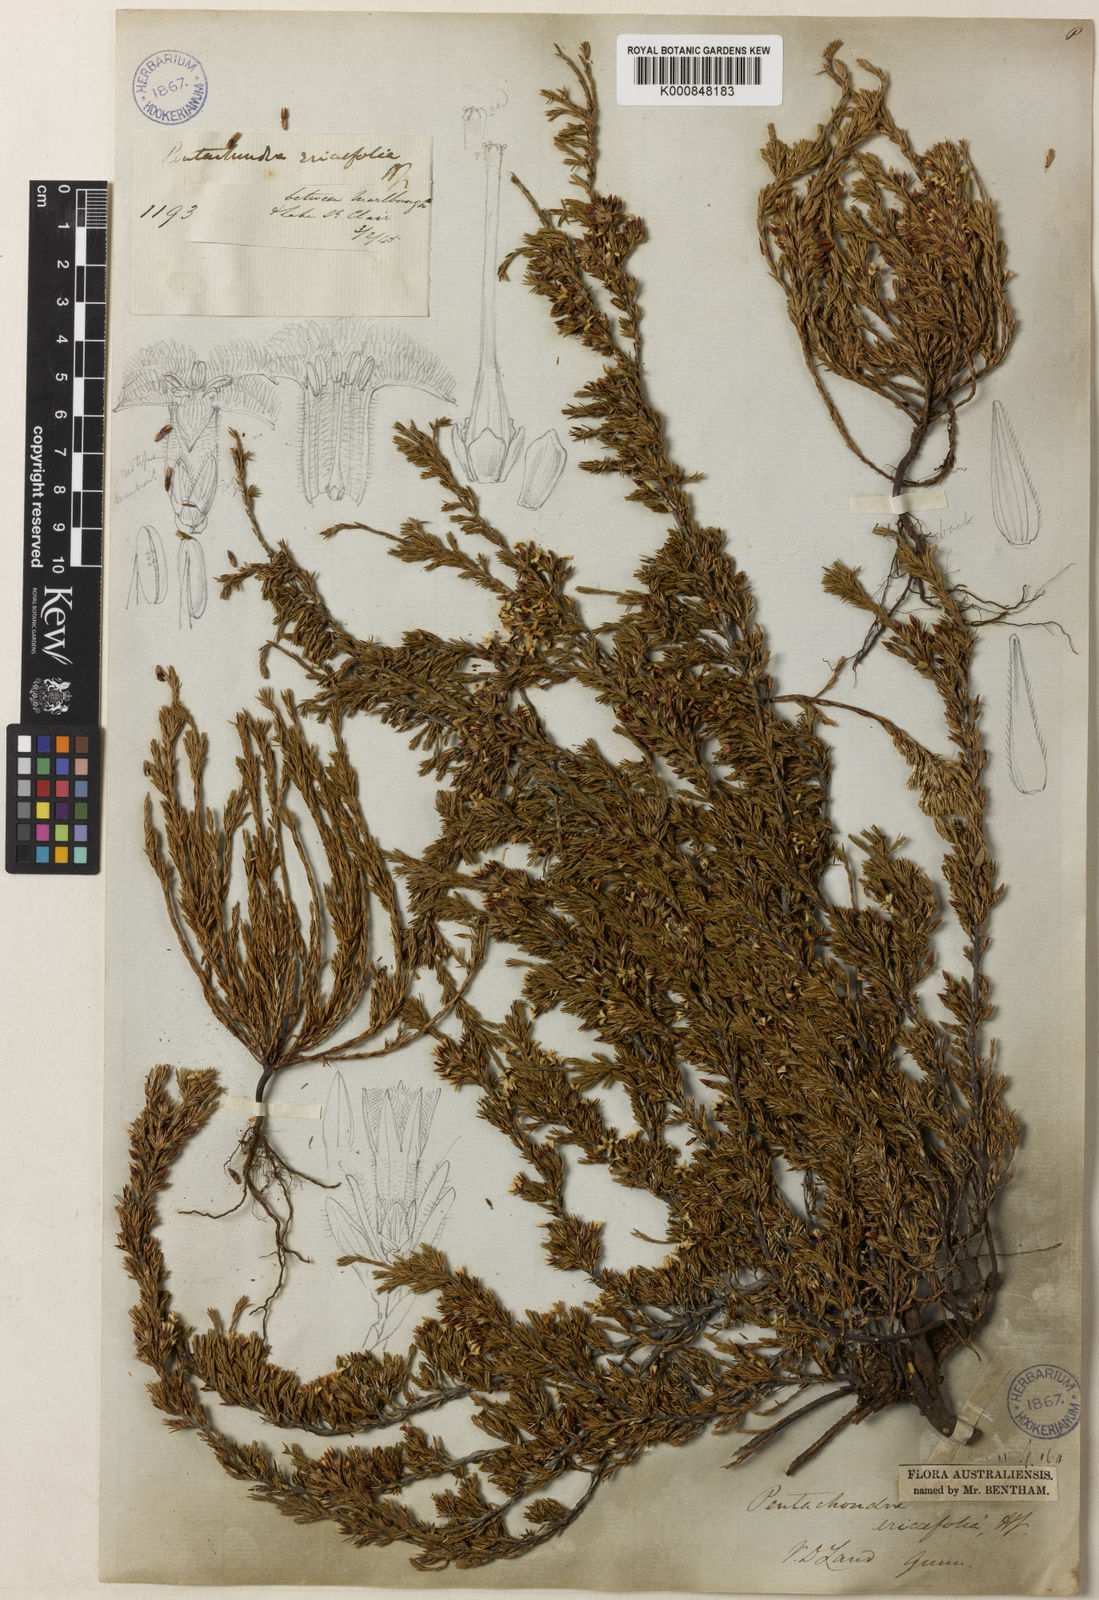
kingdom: Plantae
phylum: Tracheophyta
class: Magnoliopsida
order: Ericales
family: Ericaceae
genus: Pentachondra
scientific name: Pentachondra ericifolia
